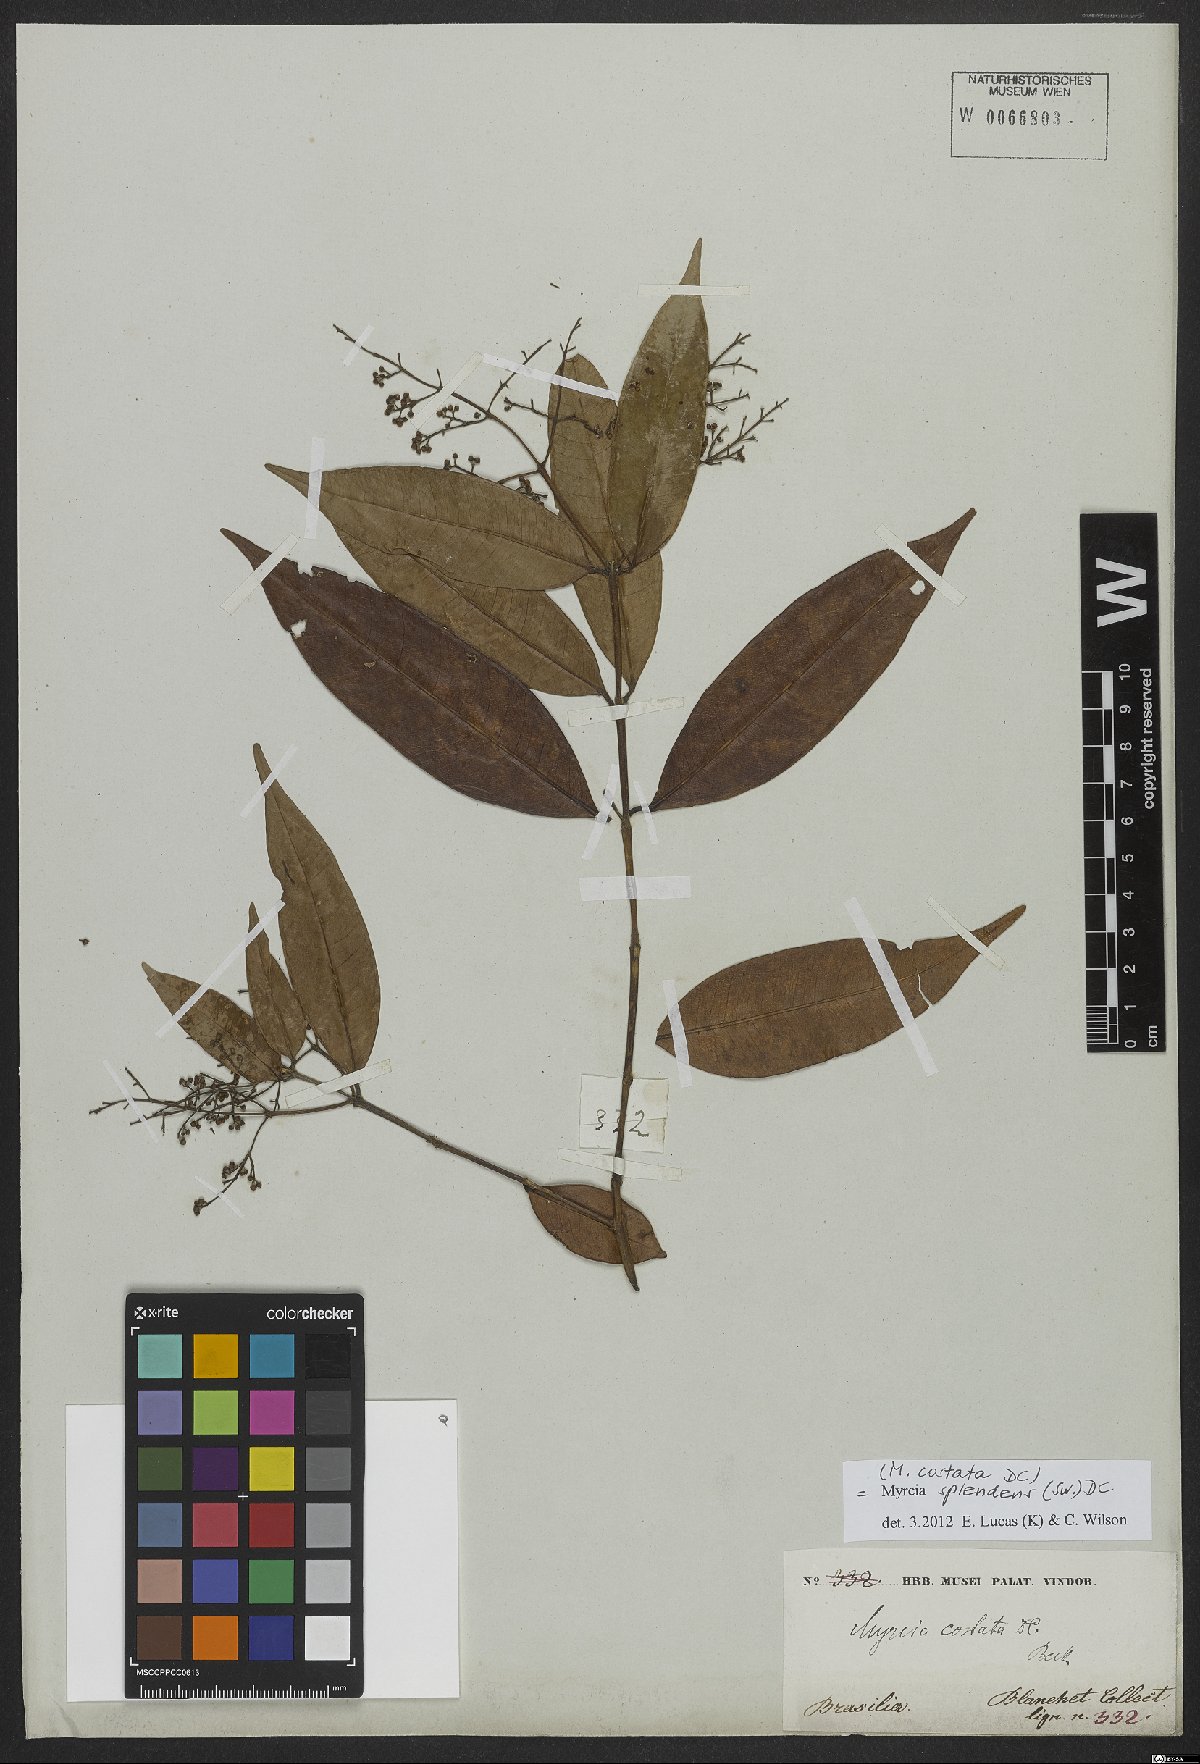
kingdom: Plantae
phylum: Tracheophyta
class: Magnoliopsida
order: Myrtales
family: Myrtaceae
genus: Myrcia
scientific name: Myrcia splendens
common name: Surinam cherry
